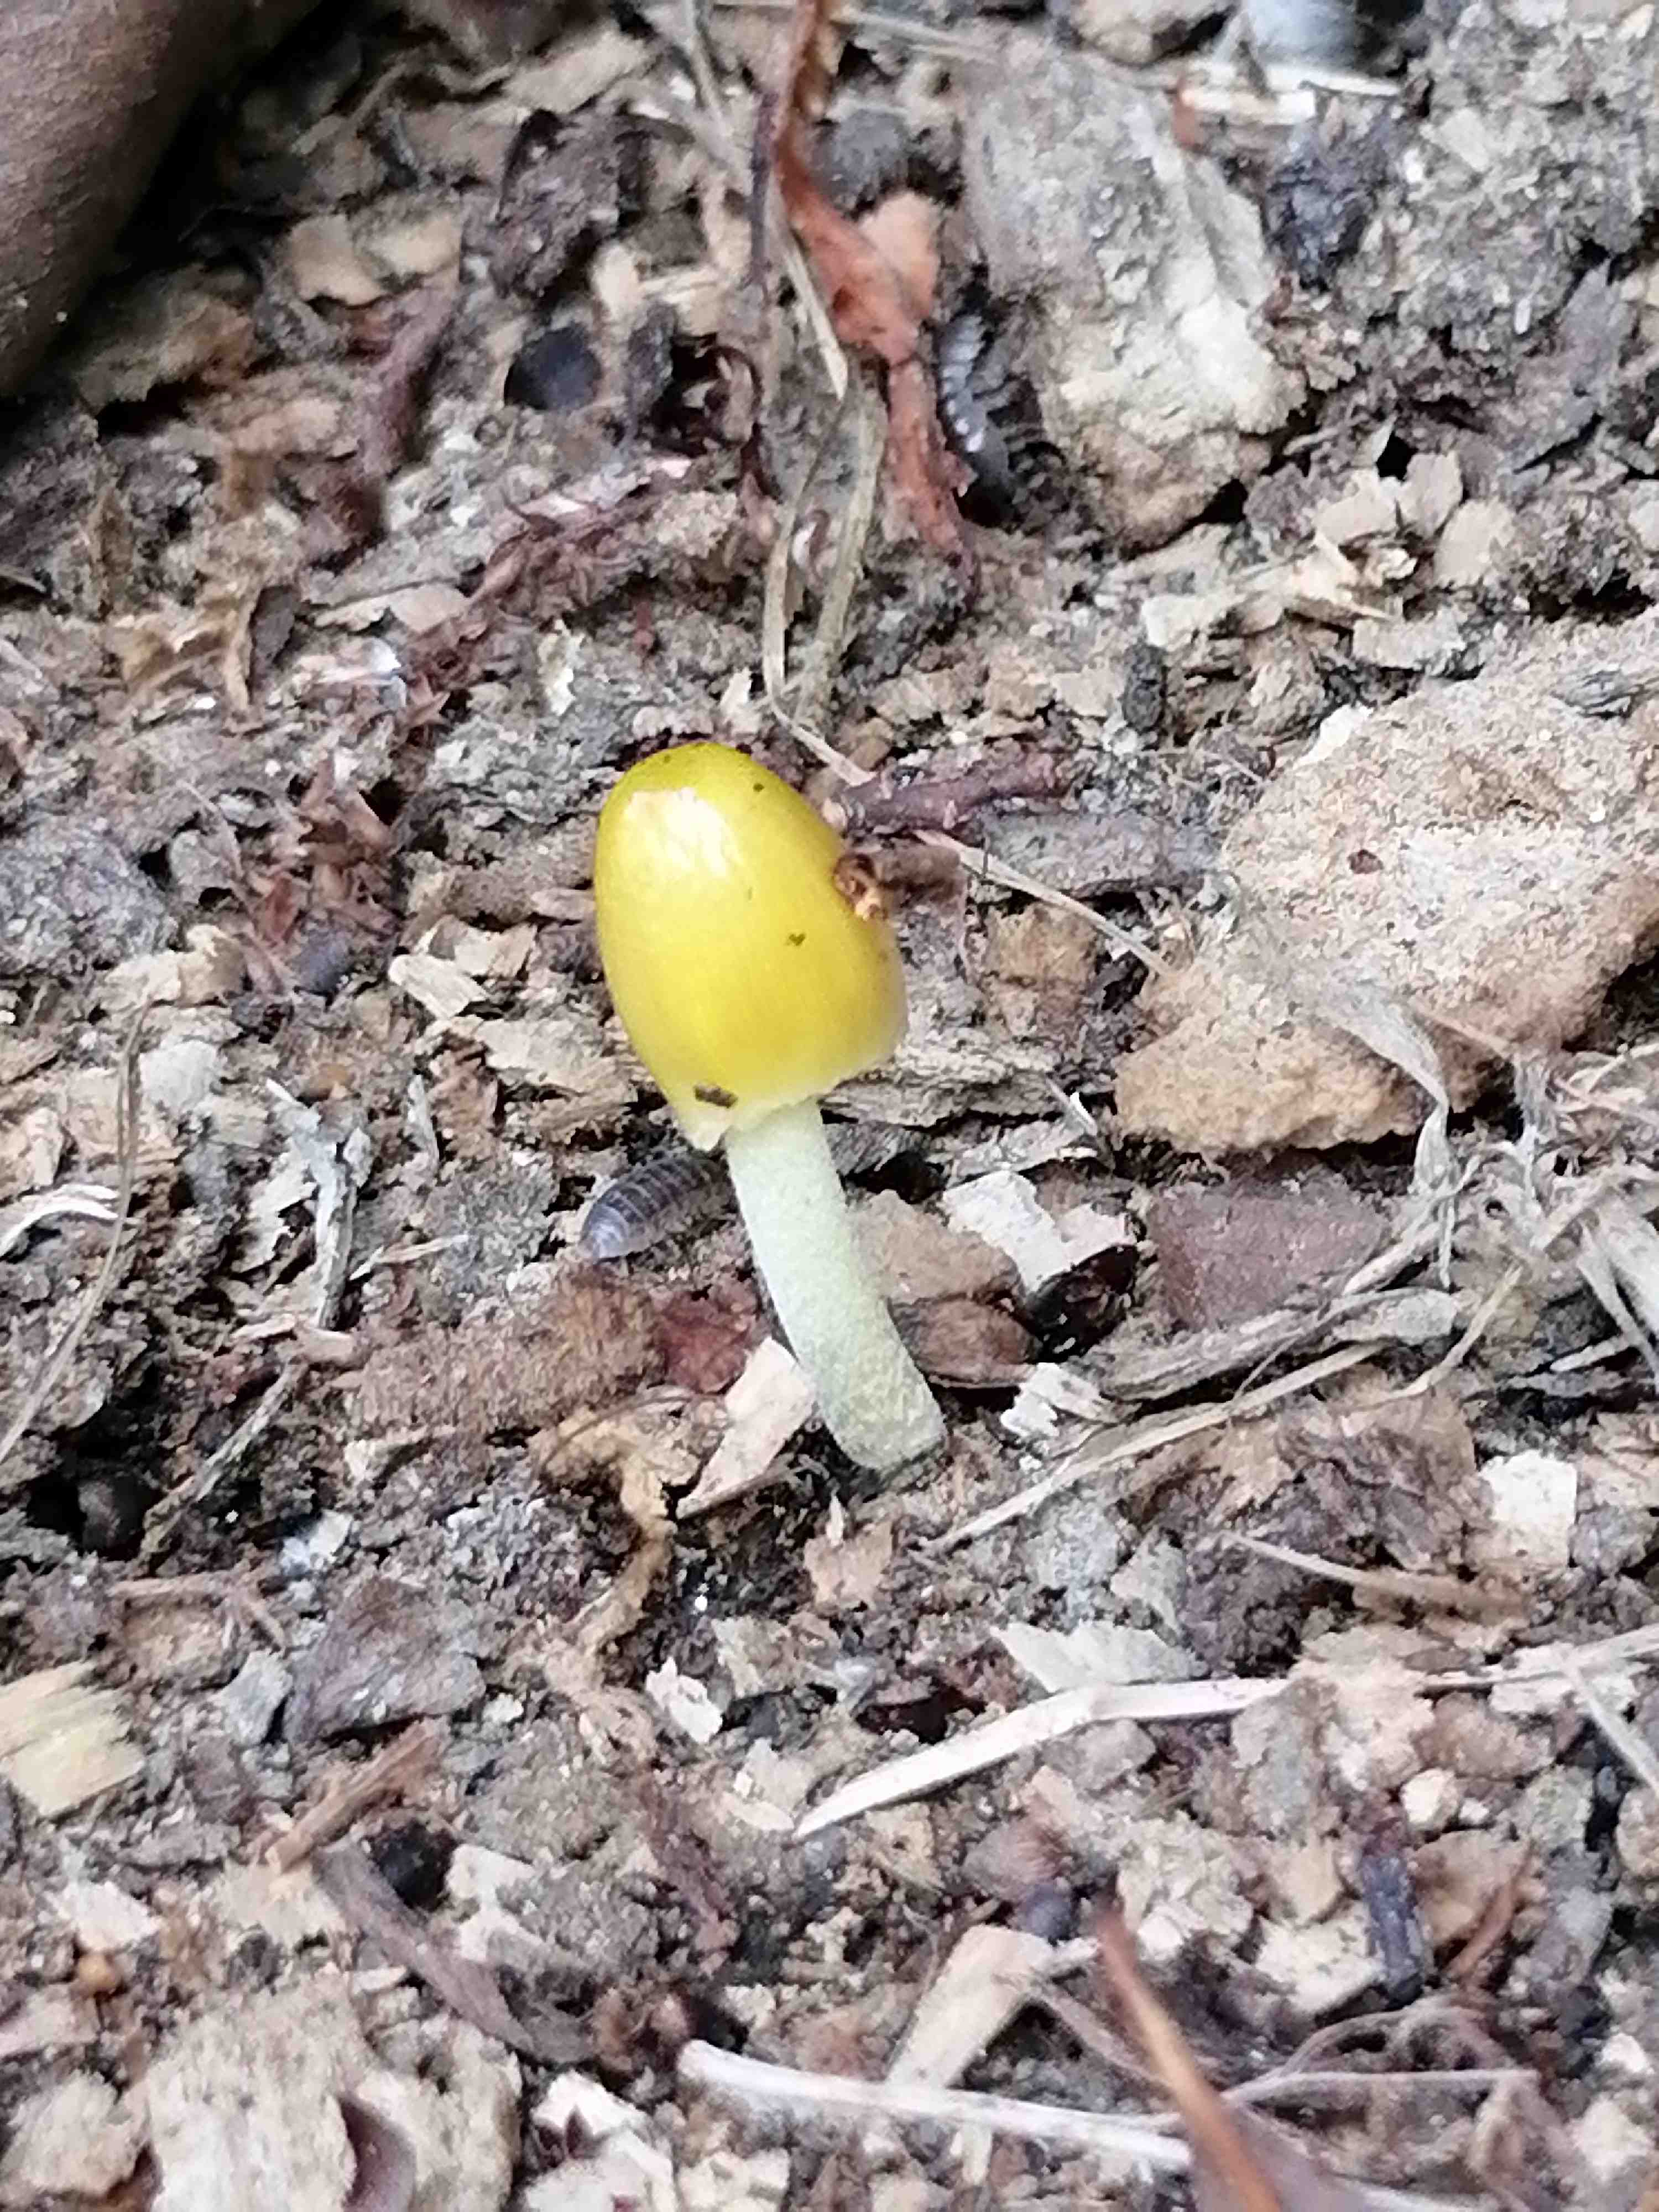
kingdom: Fungi
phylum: Basidiomycota
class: Agaricomycetes
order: Agaricales
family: Bolbitiaceae
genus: Bolbitius
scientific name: Bolbitius titubans
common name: almindelig gulhat
